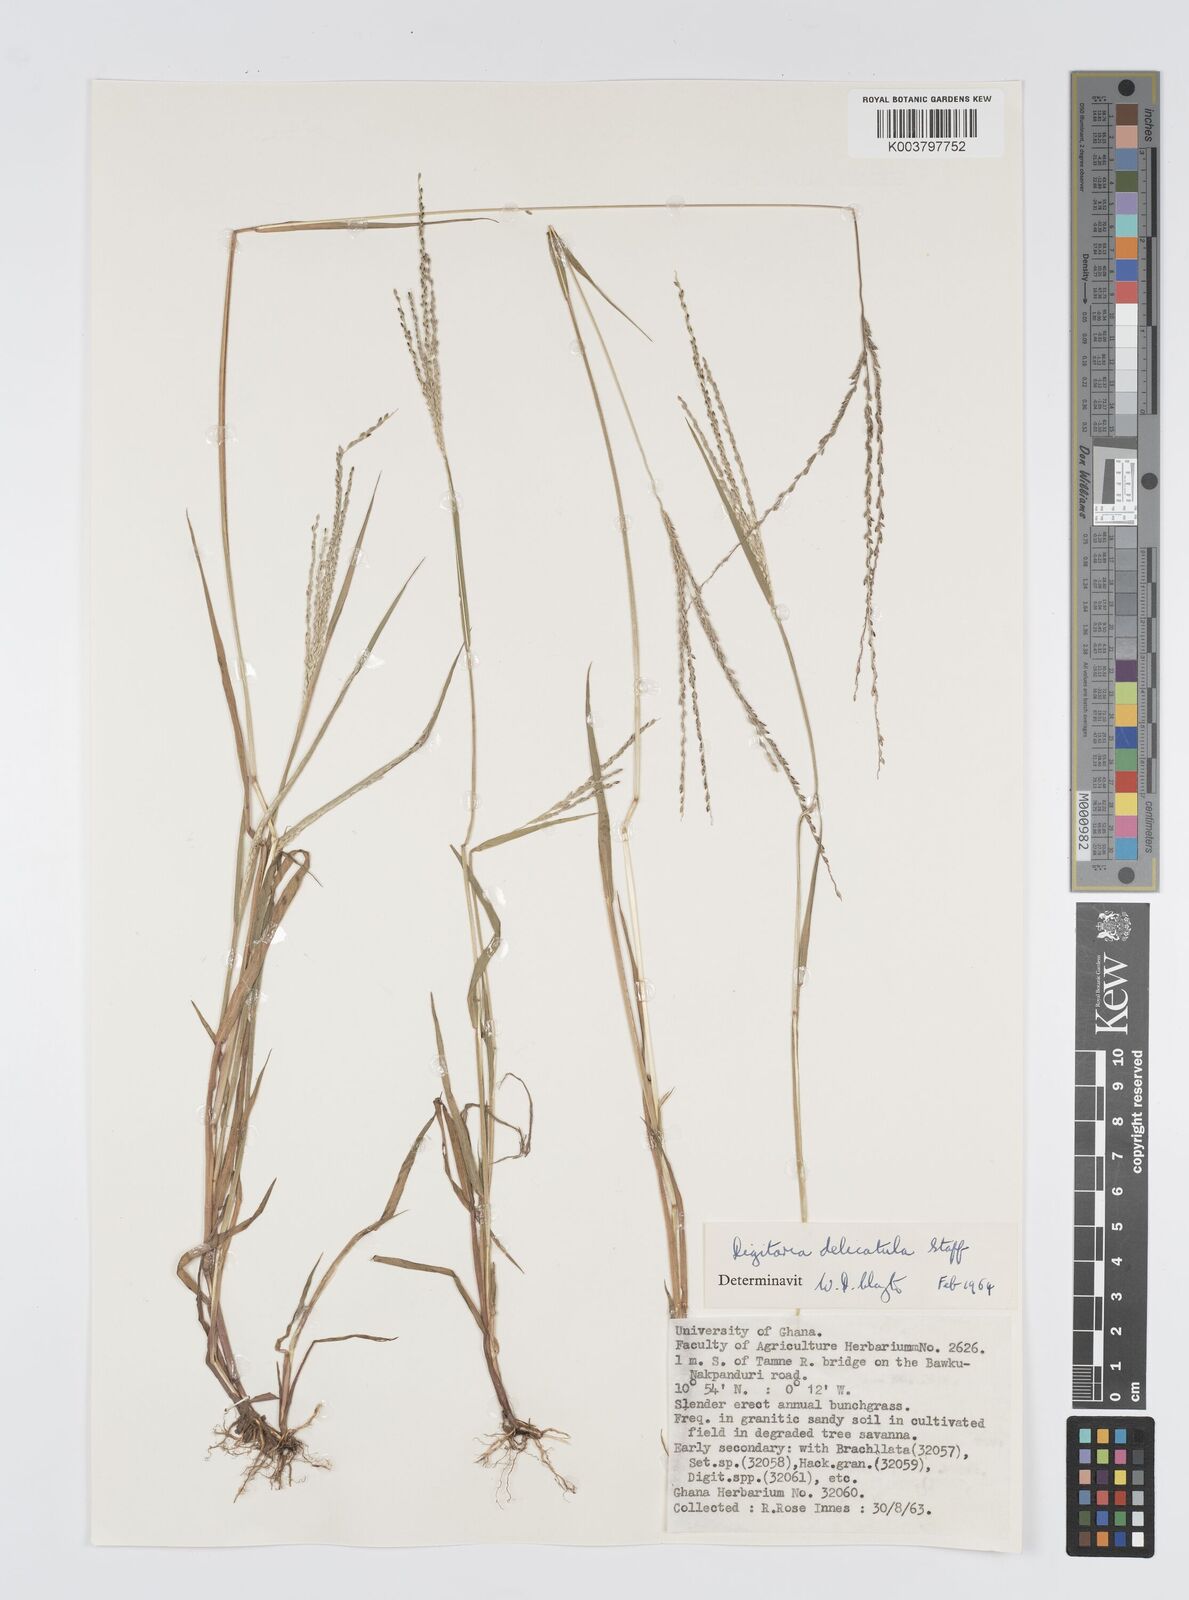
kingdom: Plantae
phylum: Tracheophyta
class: Liliopsida
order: Poales
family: Poaceae
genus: Digitaria
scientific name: Digitaria delicatula
